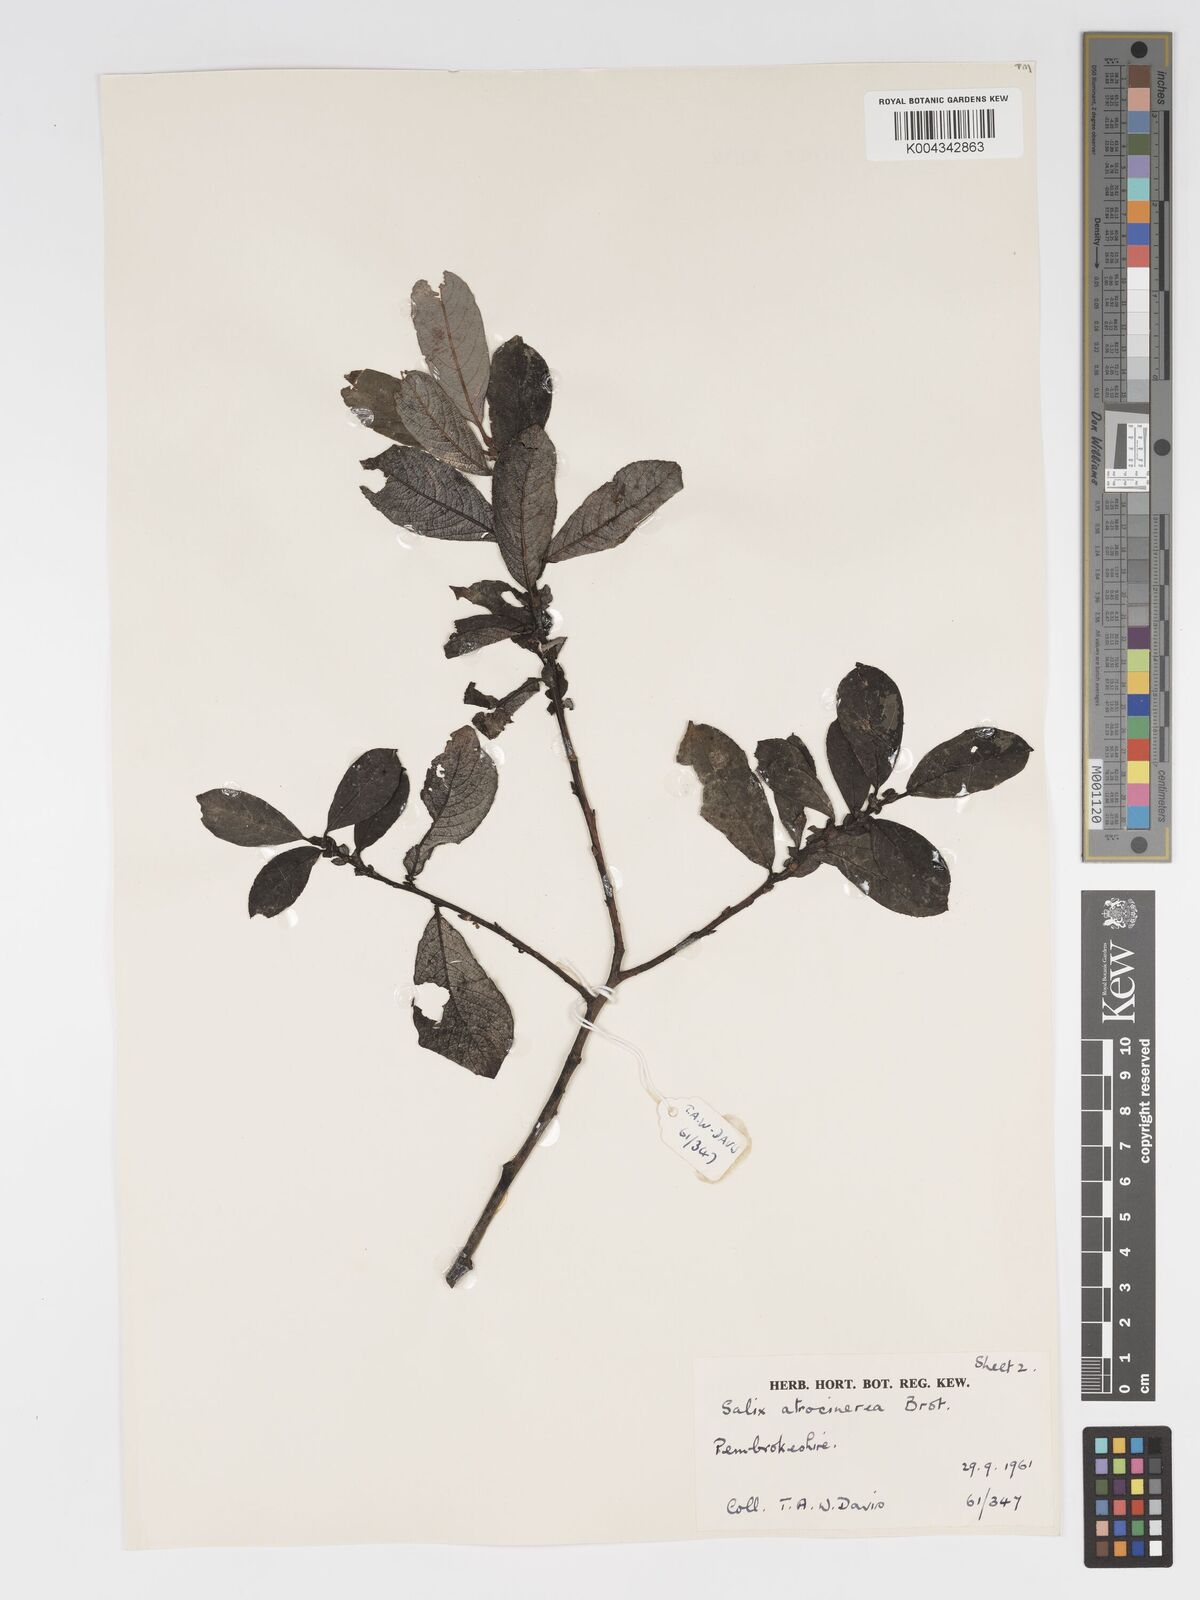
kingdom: Plantae
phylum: Tracheophyta
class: Magnoliopsida
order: Malpighiales
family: Salicaceae
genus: Salix
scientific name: Salix atrocinerea
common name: Rusty willow
